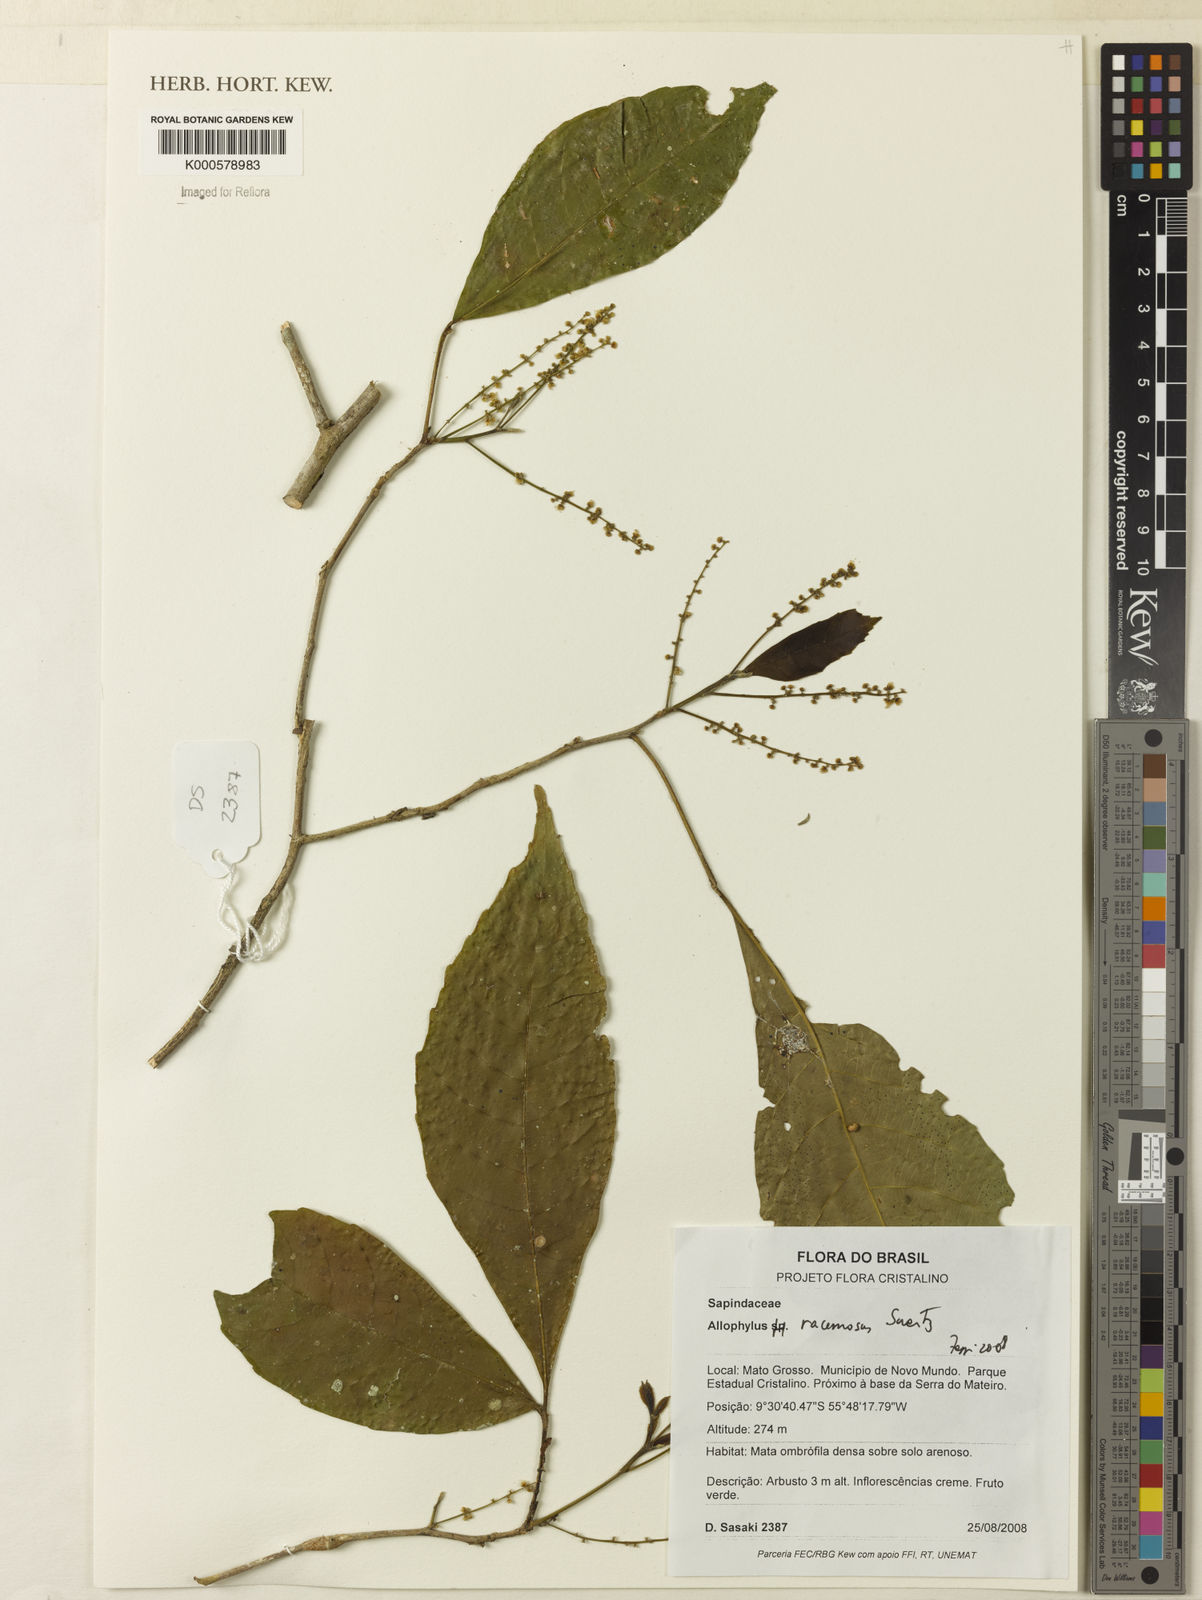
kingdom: Plantae
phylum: Tracheophyta
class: Magnoliopsida
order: Sapindales
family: Sapindaceae
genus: Allophylus
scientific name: Allophylus racemosus
